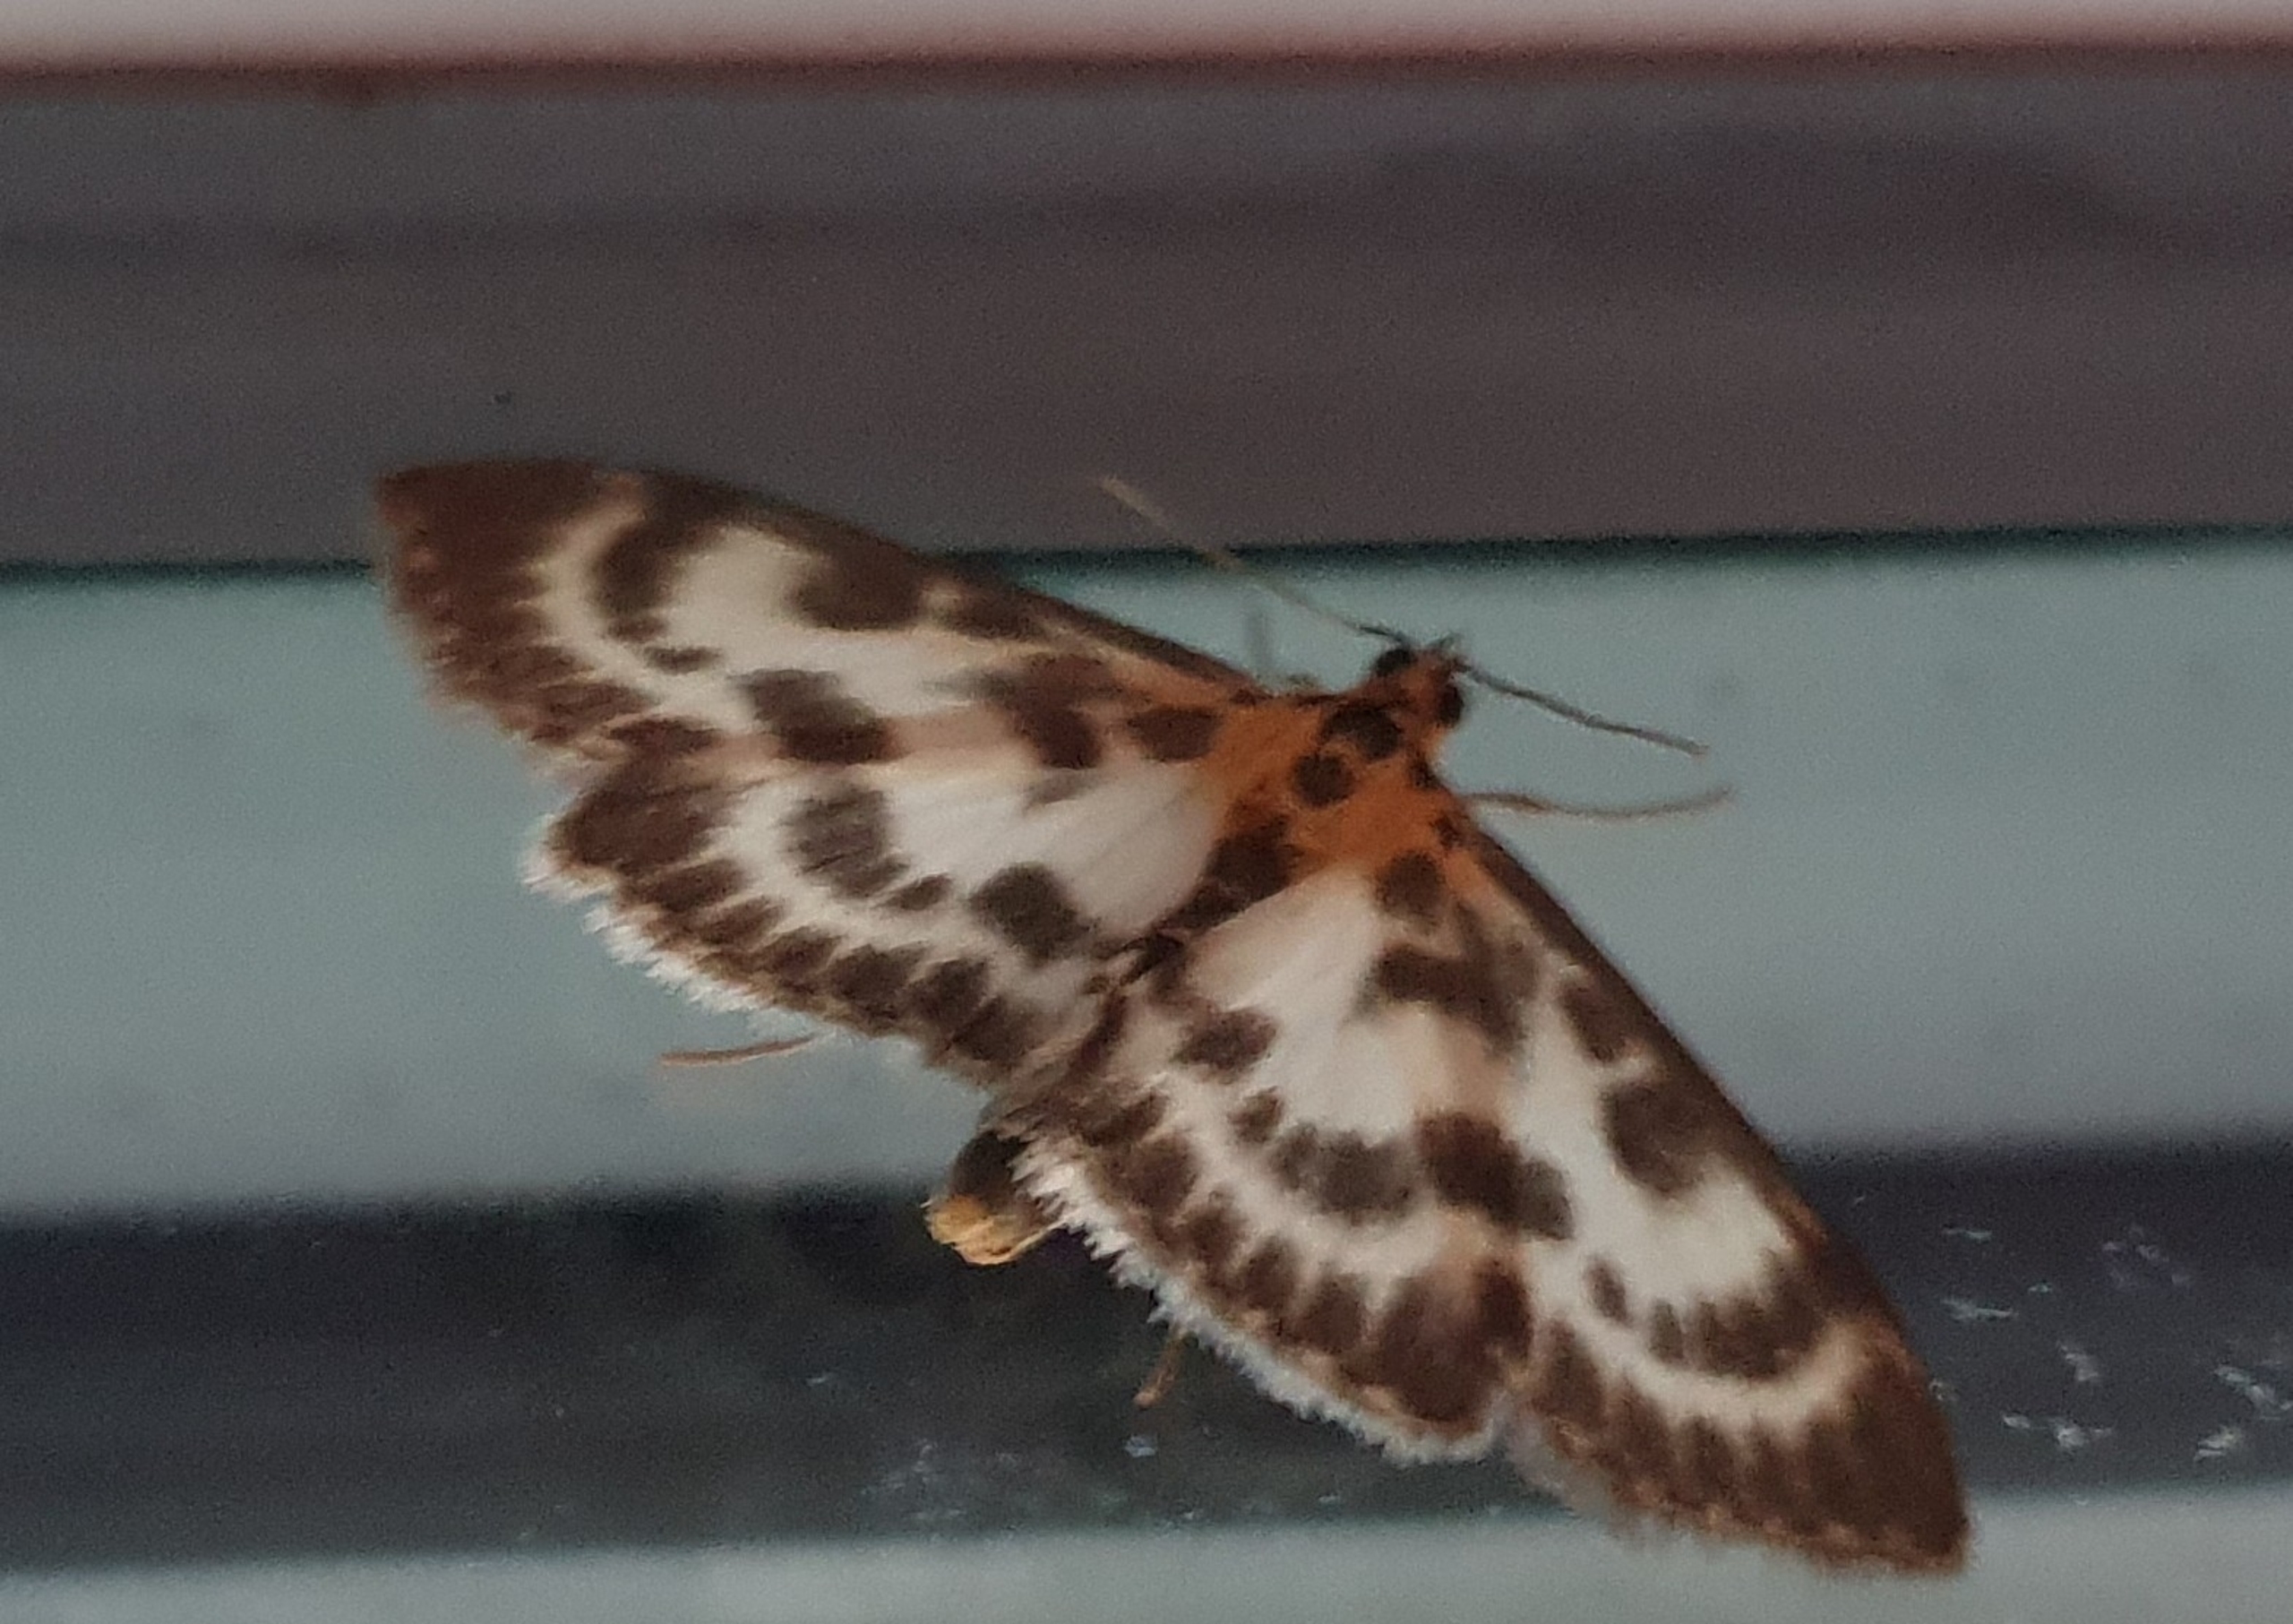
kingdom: Animalia
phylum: Arthropoda
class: Insecta
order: Lepidoptera
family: Crambidae
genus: Anania
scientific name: Anania hortulata
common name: Nældehalvmøl
